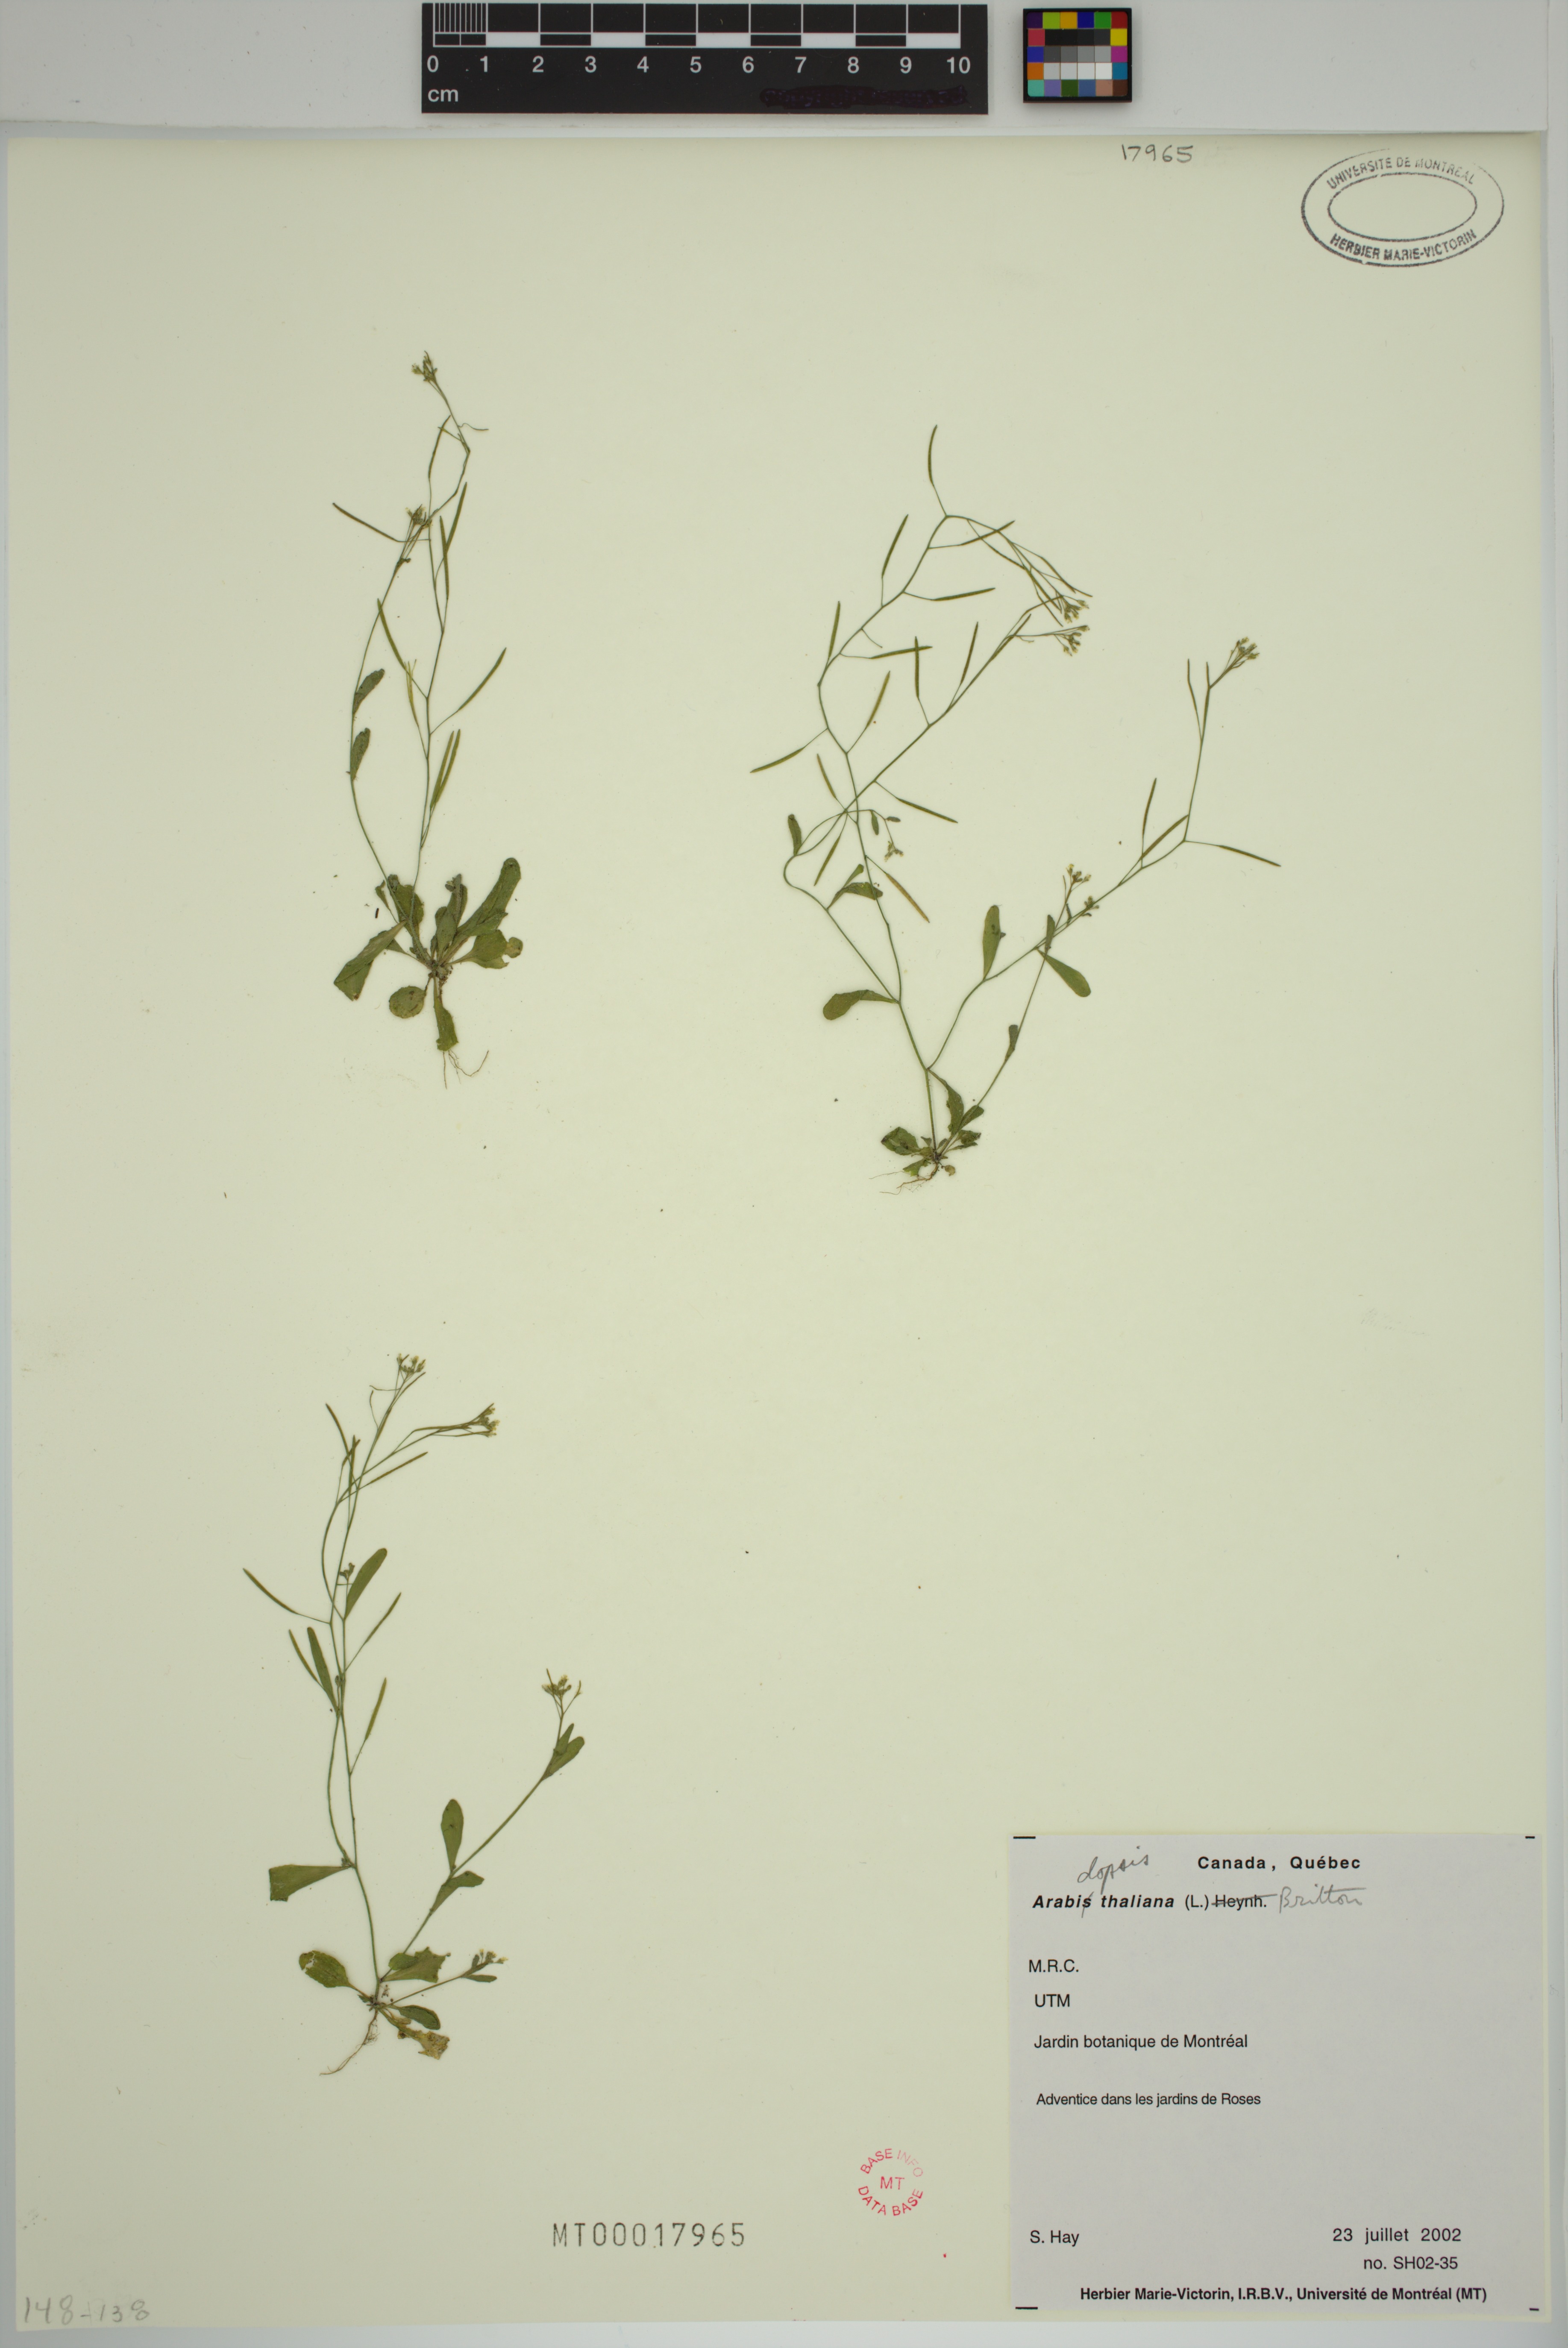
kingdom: Plantae
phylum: Tracheophyta
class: Magnoliopsida
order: Brassicales
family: Brassicaceae
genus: Arabidopsis
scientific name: Arabidopsis thaliana
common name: Thale cress
